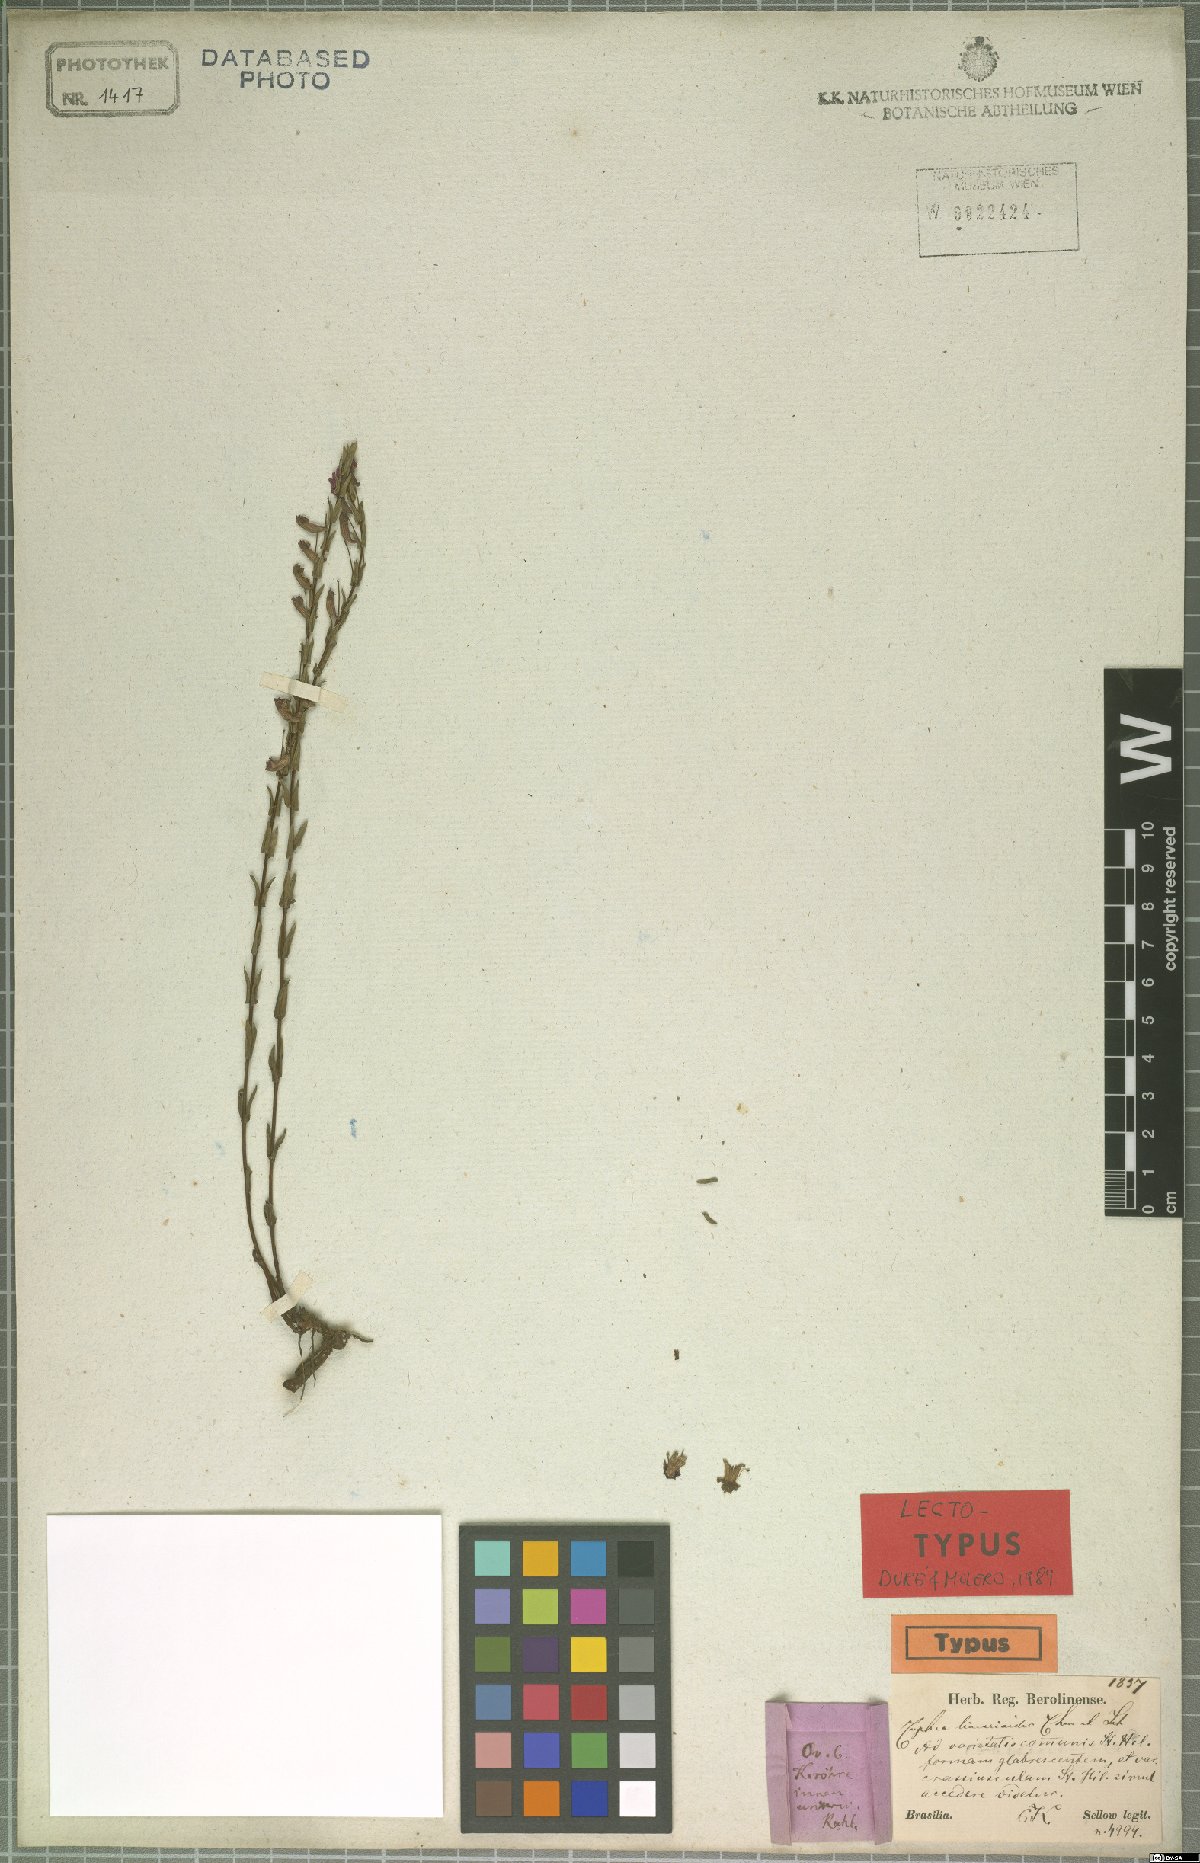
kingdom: Plantae
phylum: Tracheophyta
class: Magnoliopsida
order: Myrtales
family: Lythraceae
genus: Cuphea
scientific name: Cuphea linarioides
